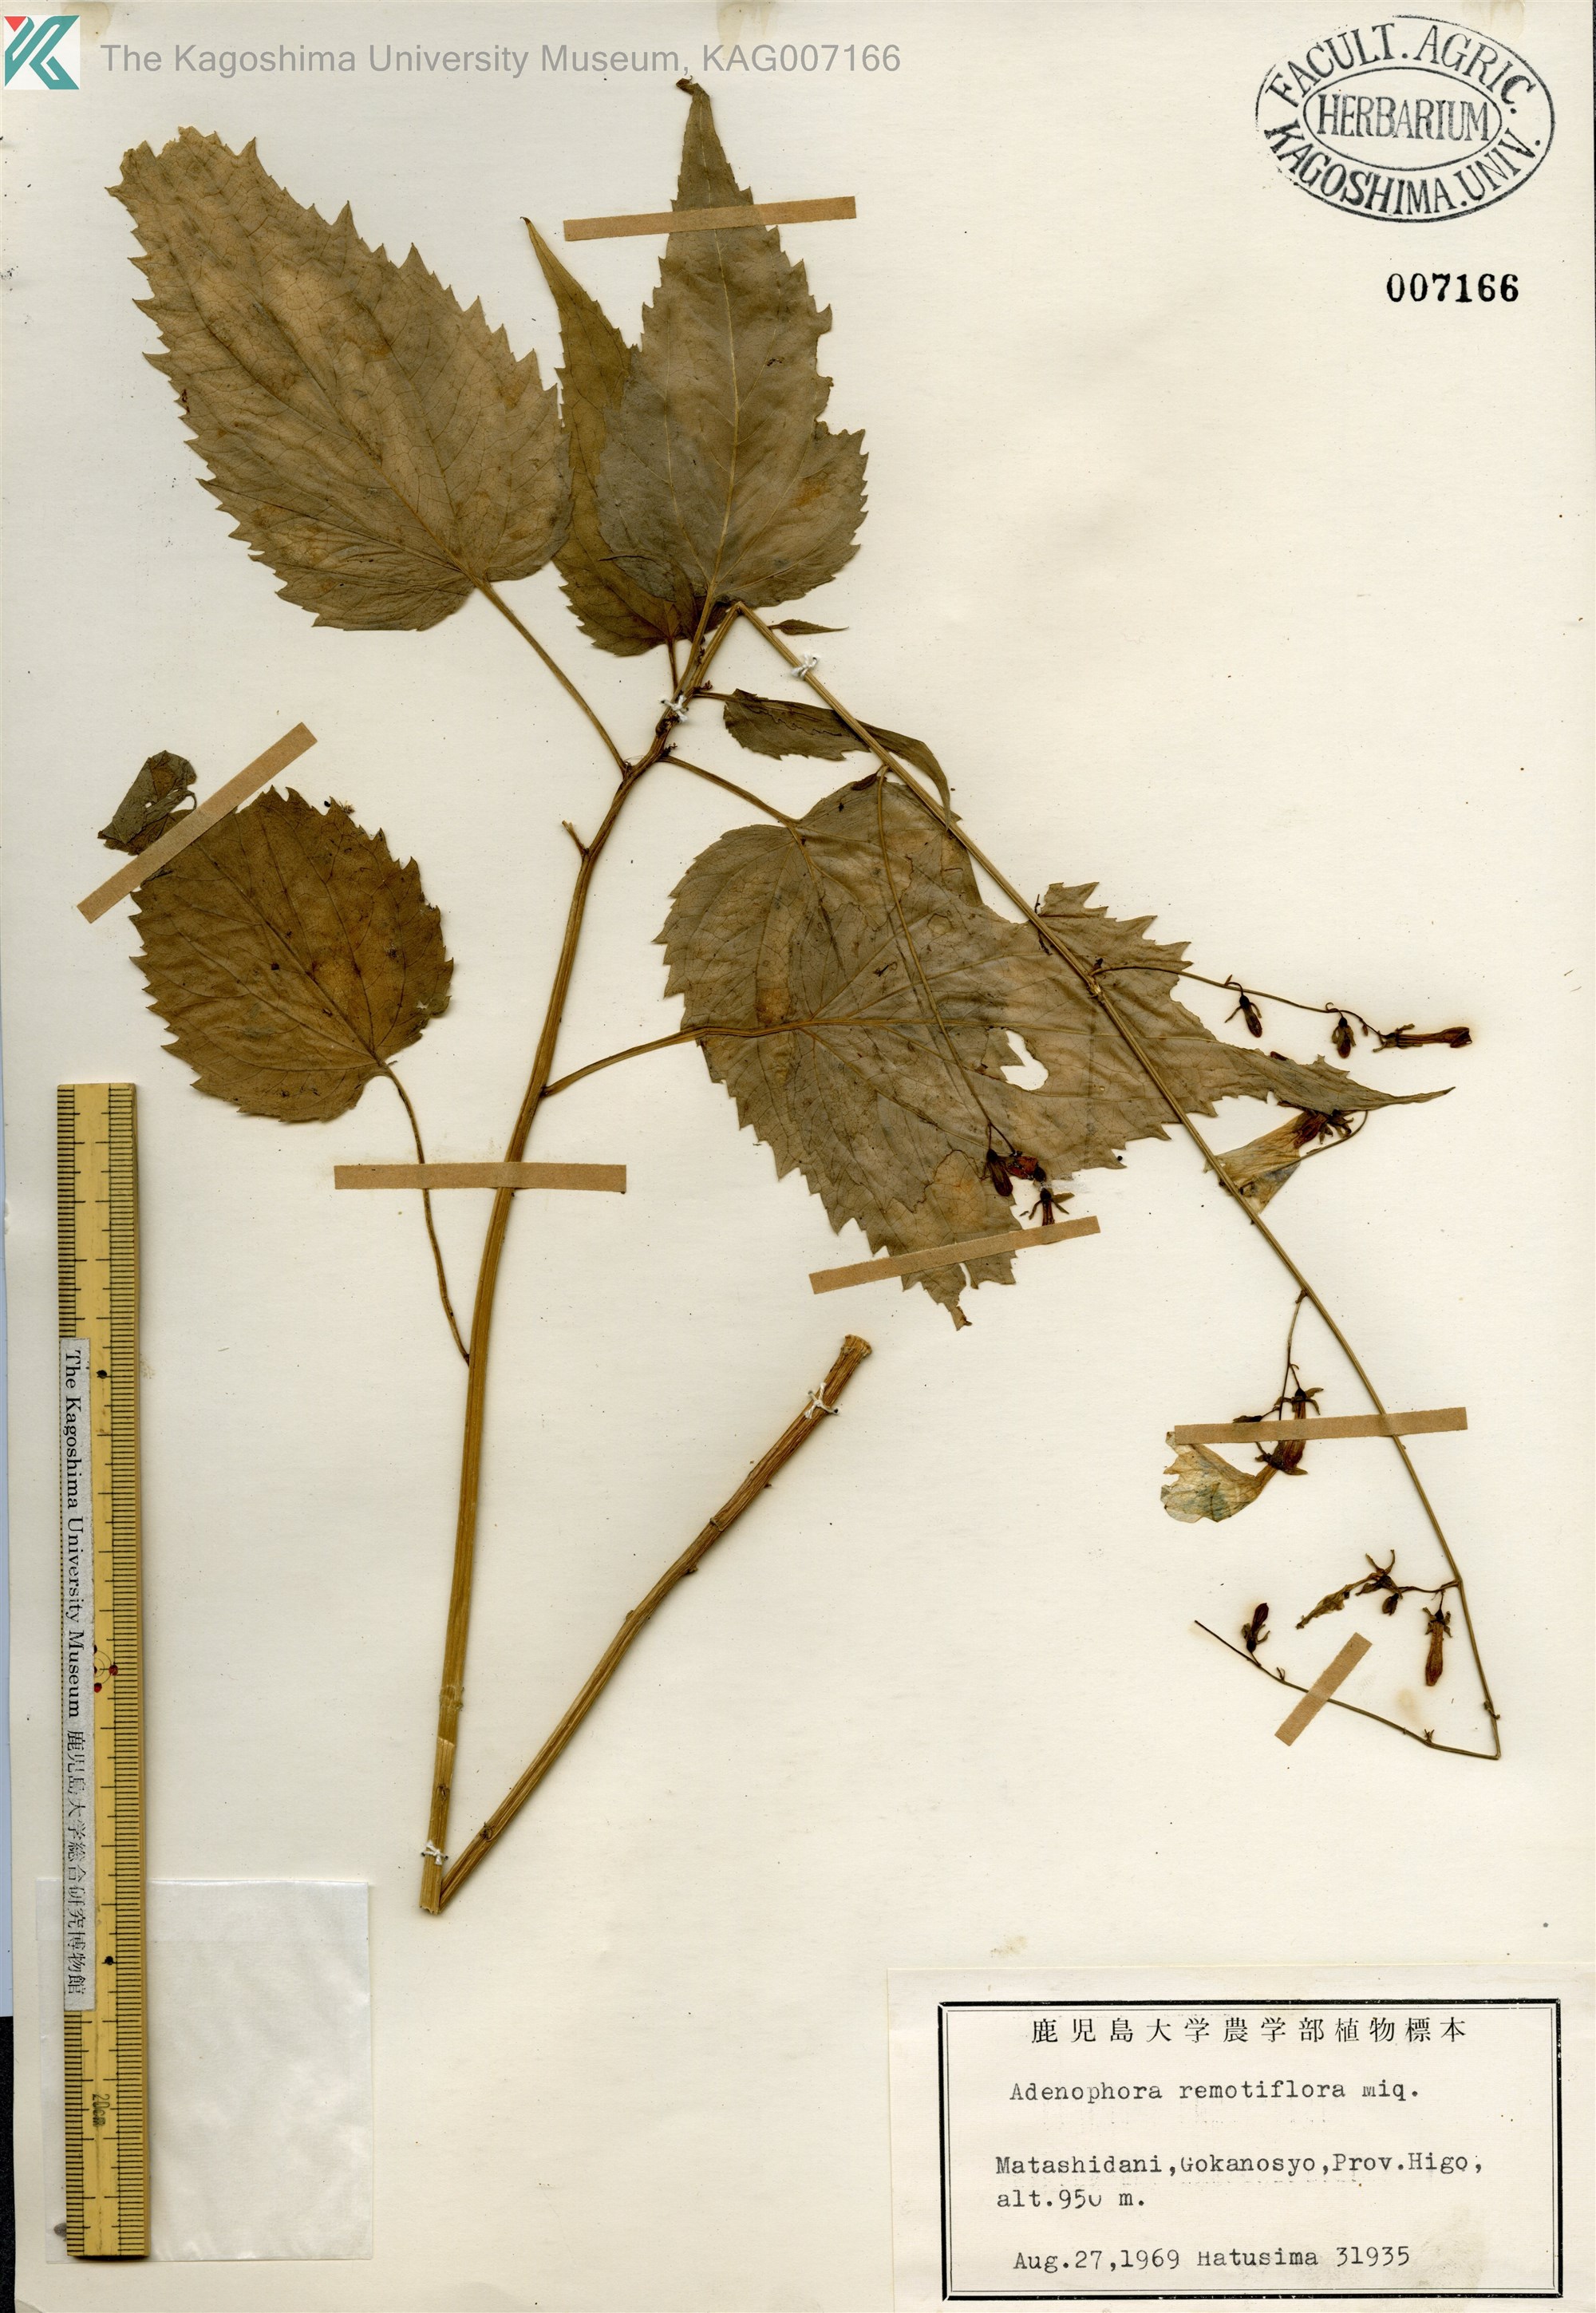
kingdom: Plantae
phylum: Tracheophyta
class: Magnoliopsida
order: Asterales
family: Campanulaceae
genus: Adenophora
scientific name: Adenophora remotiflora
